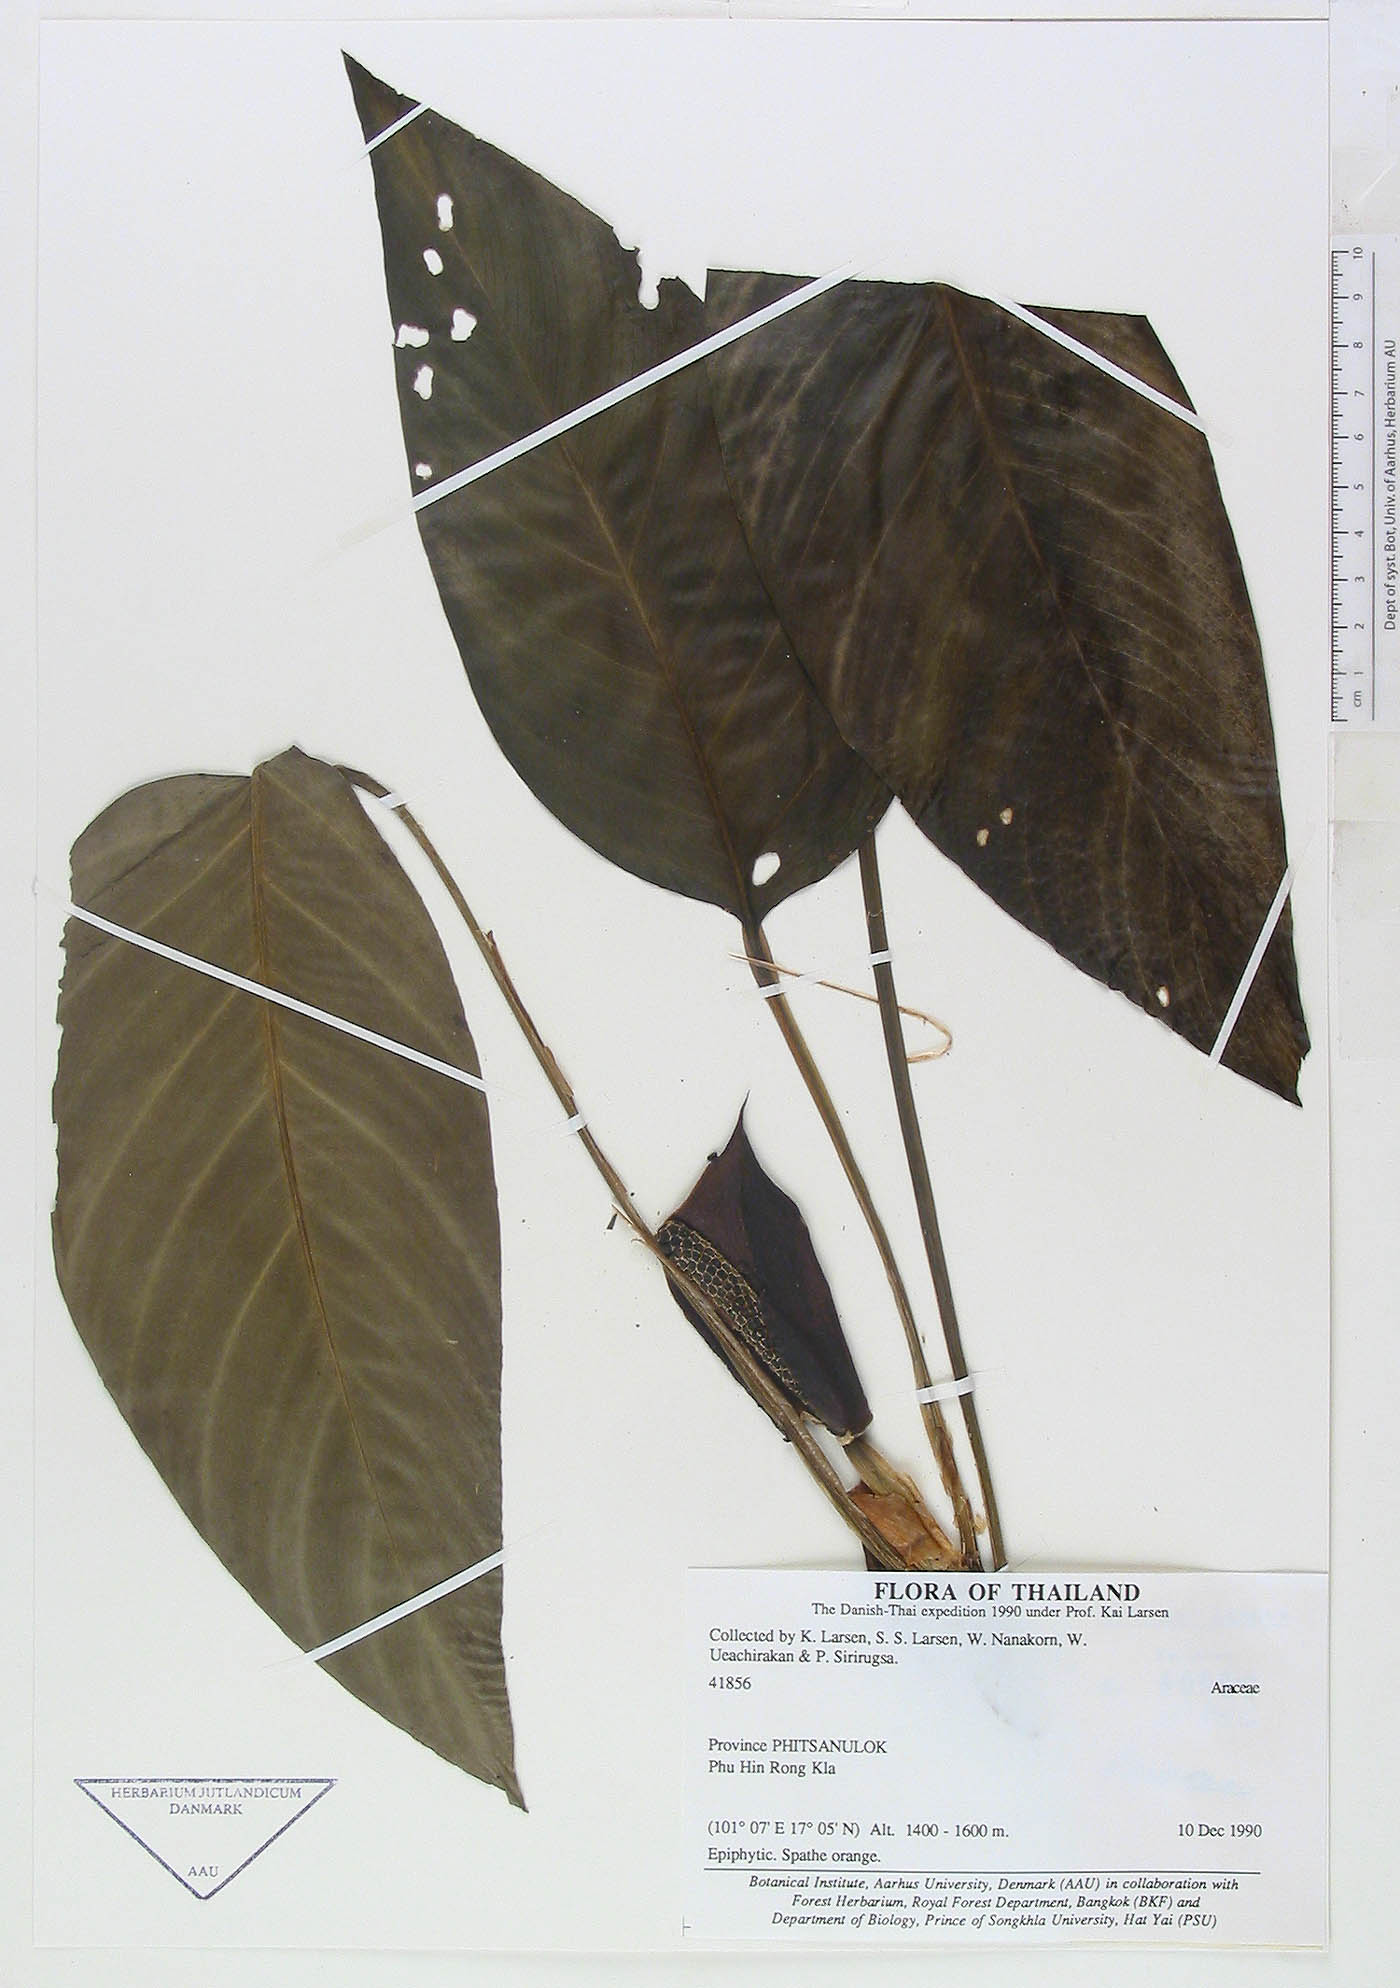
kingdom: Plantae
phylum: Tracheophyta
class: Liliopsida
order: Alismatales
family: Araceae
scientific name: Araceae
